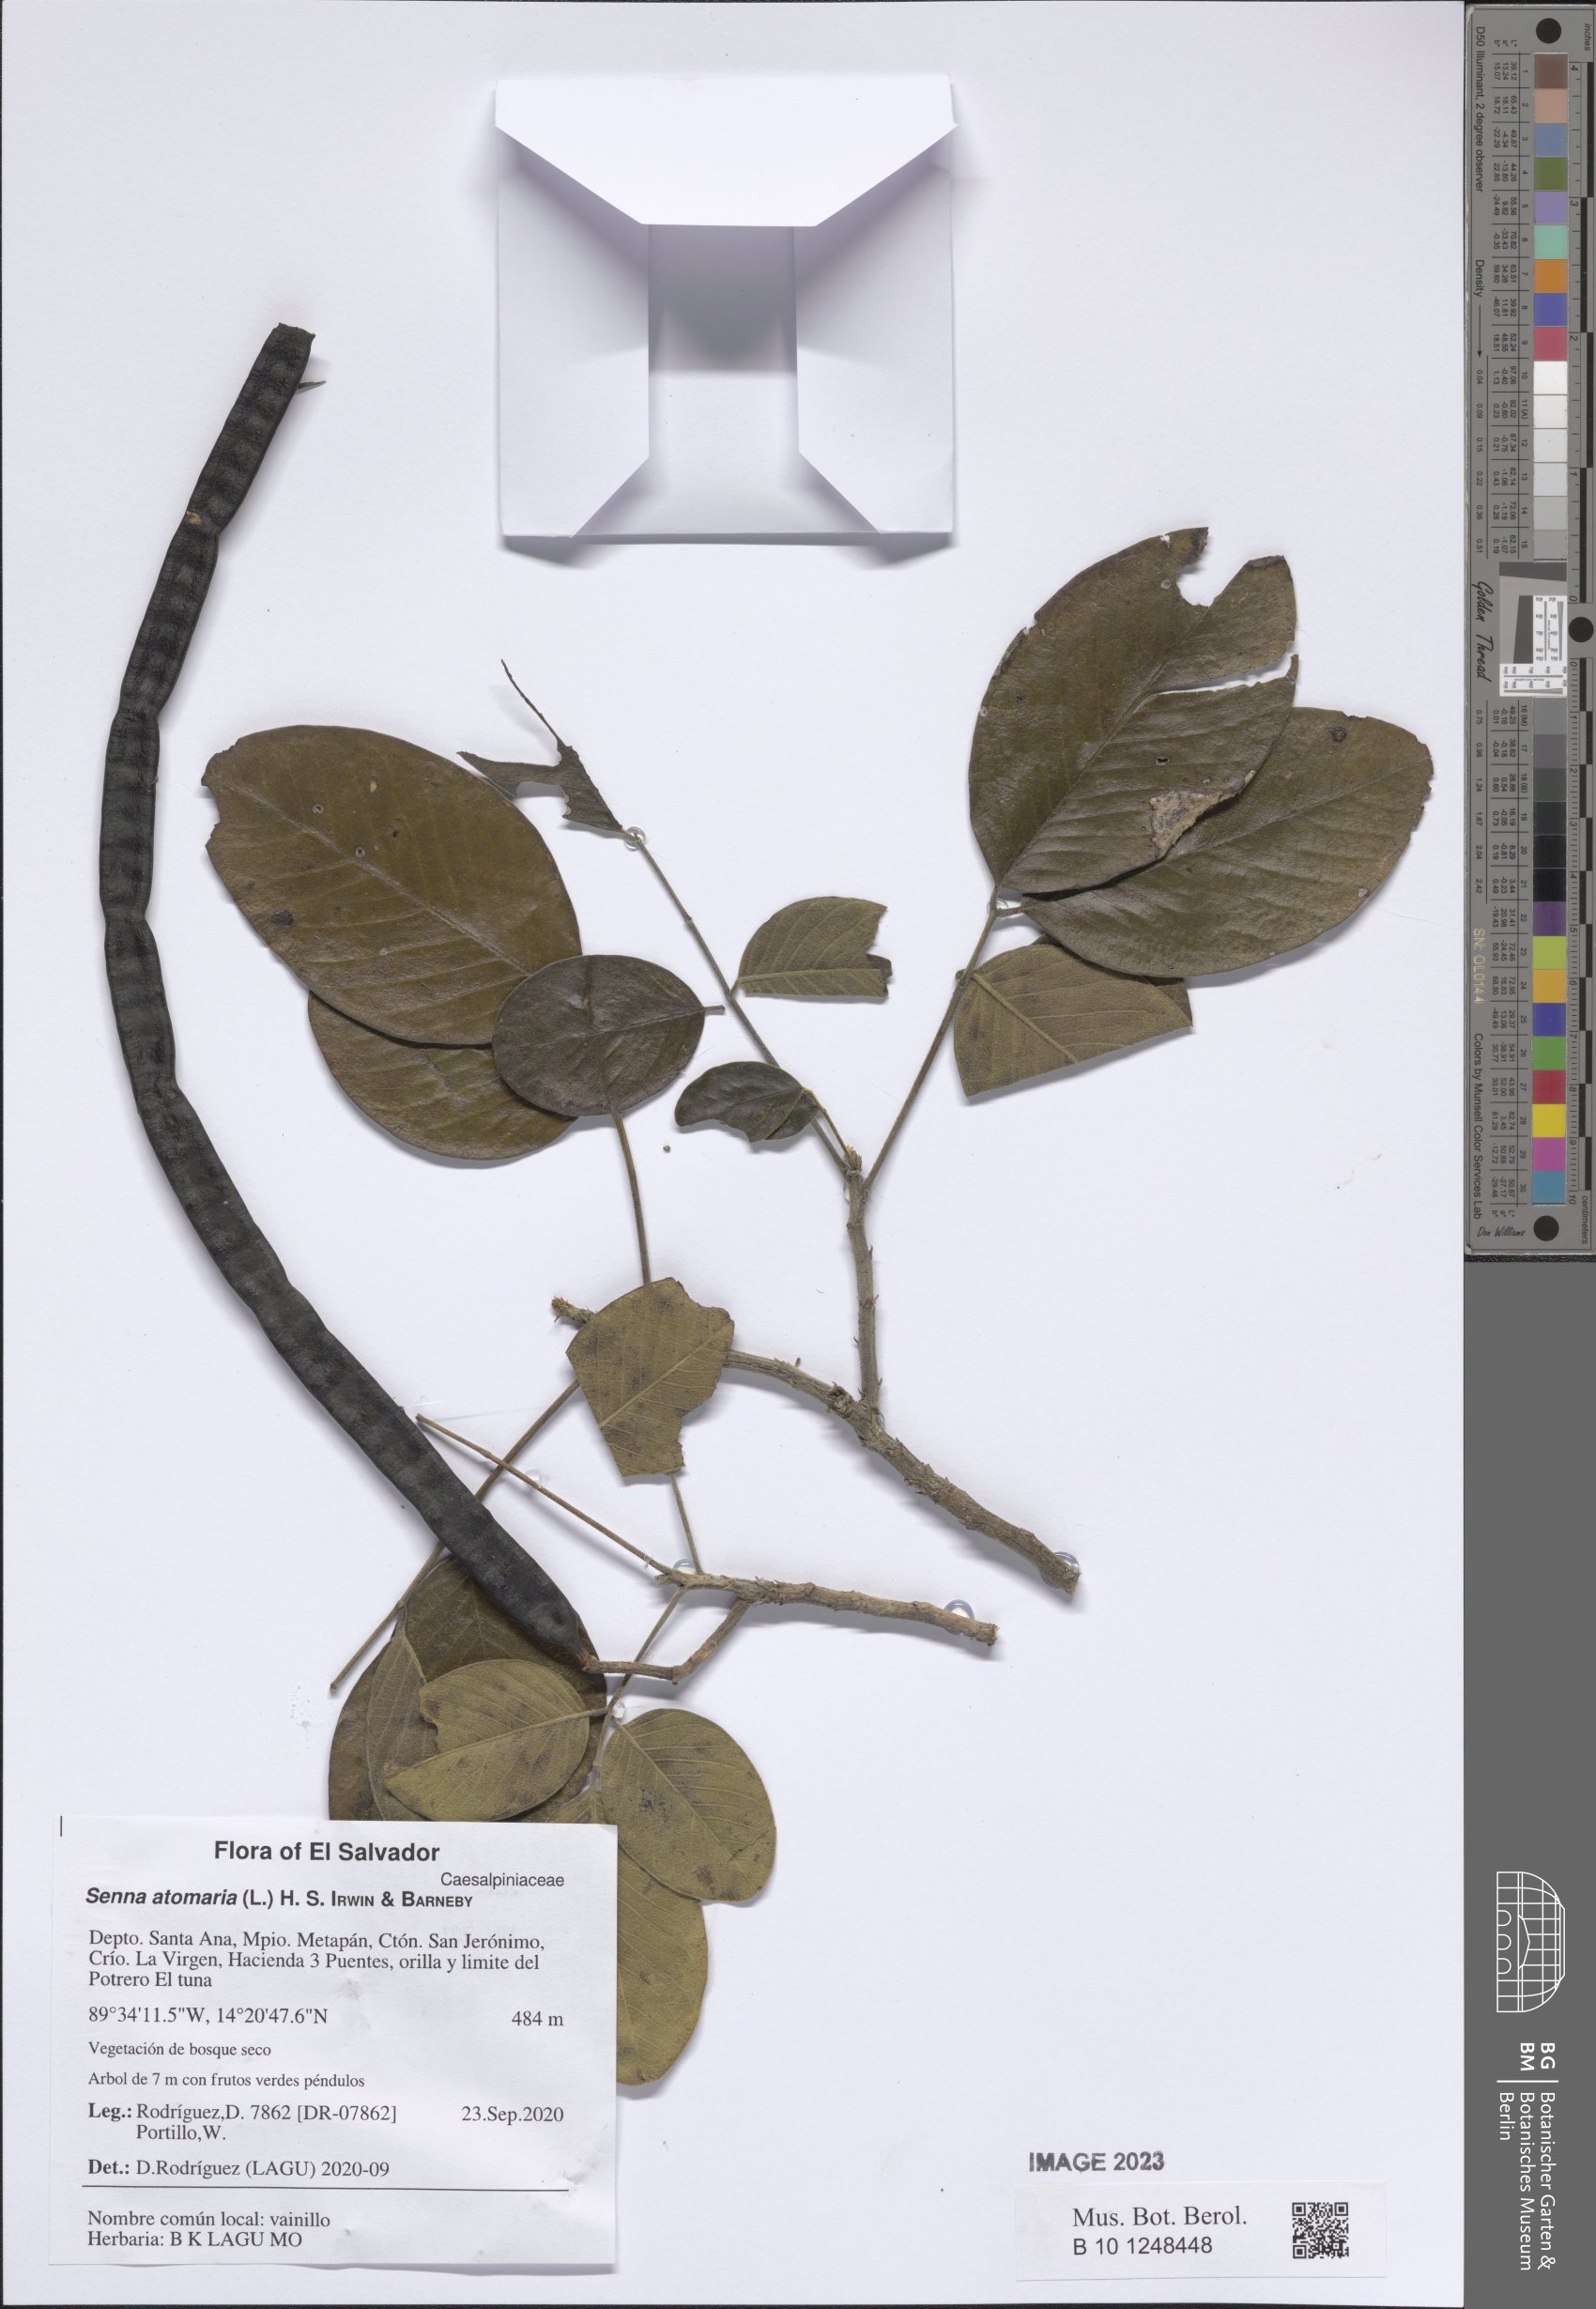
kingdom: Plantae
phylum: Tracheophyta
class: Magnoliopsida
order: Fabales
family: Fabaceae
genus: Senna
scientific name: Senna atomaria
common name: Flor de san jose
